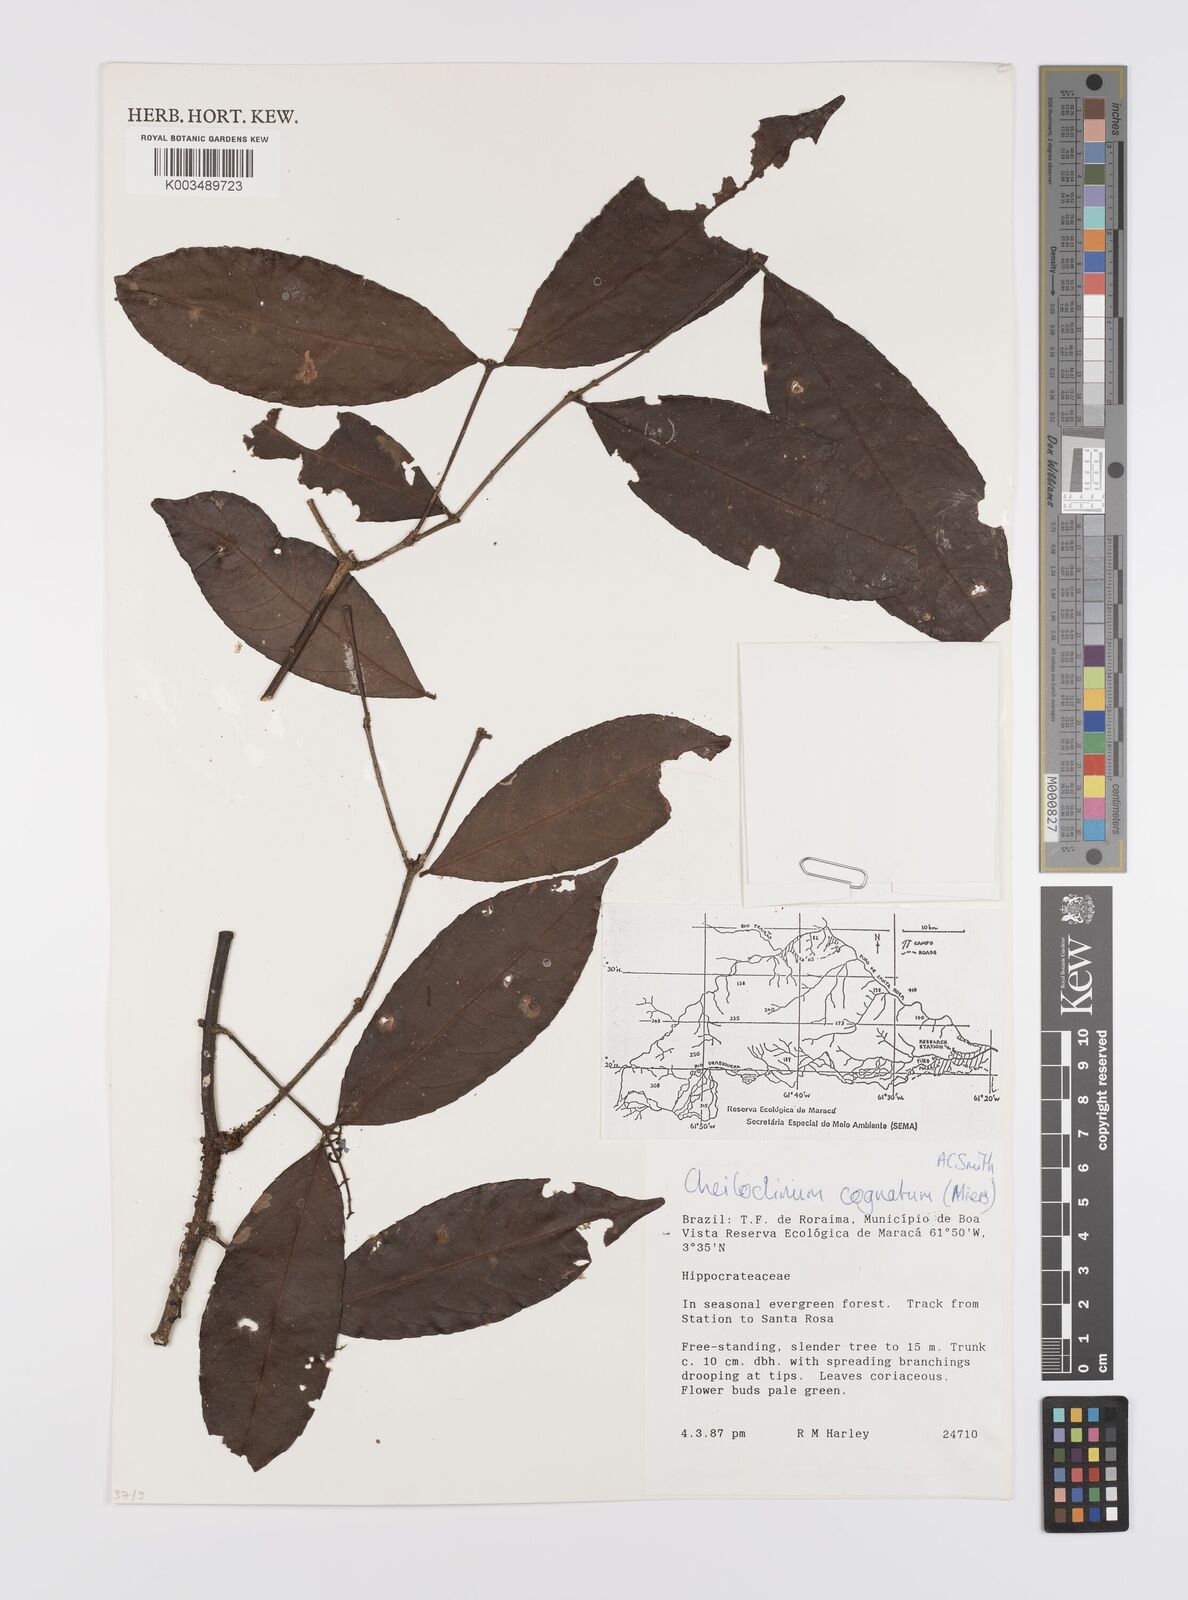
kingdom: Plantae
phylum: Tracheophyta
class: Magnoliopsida
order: Celastrales
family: Celastraceae
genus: Cheiloclinium
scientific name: Cheiloclinium cognatum
